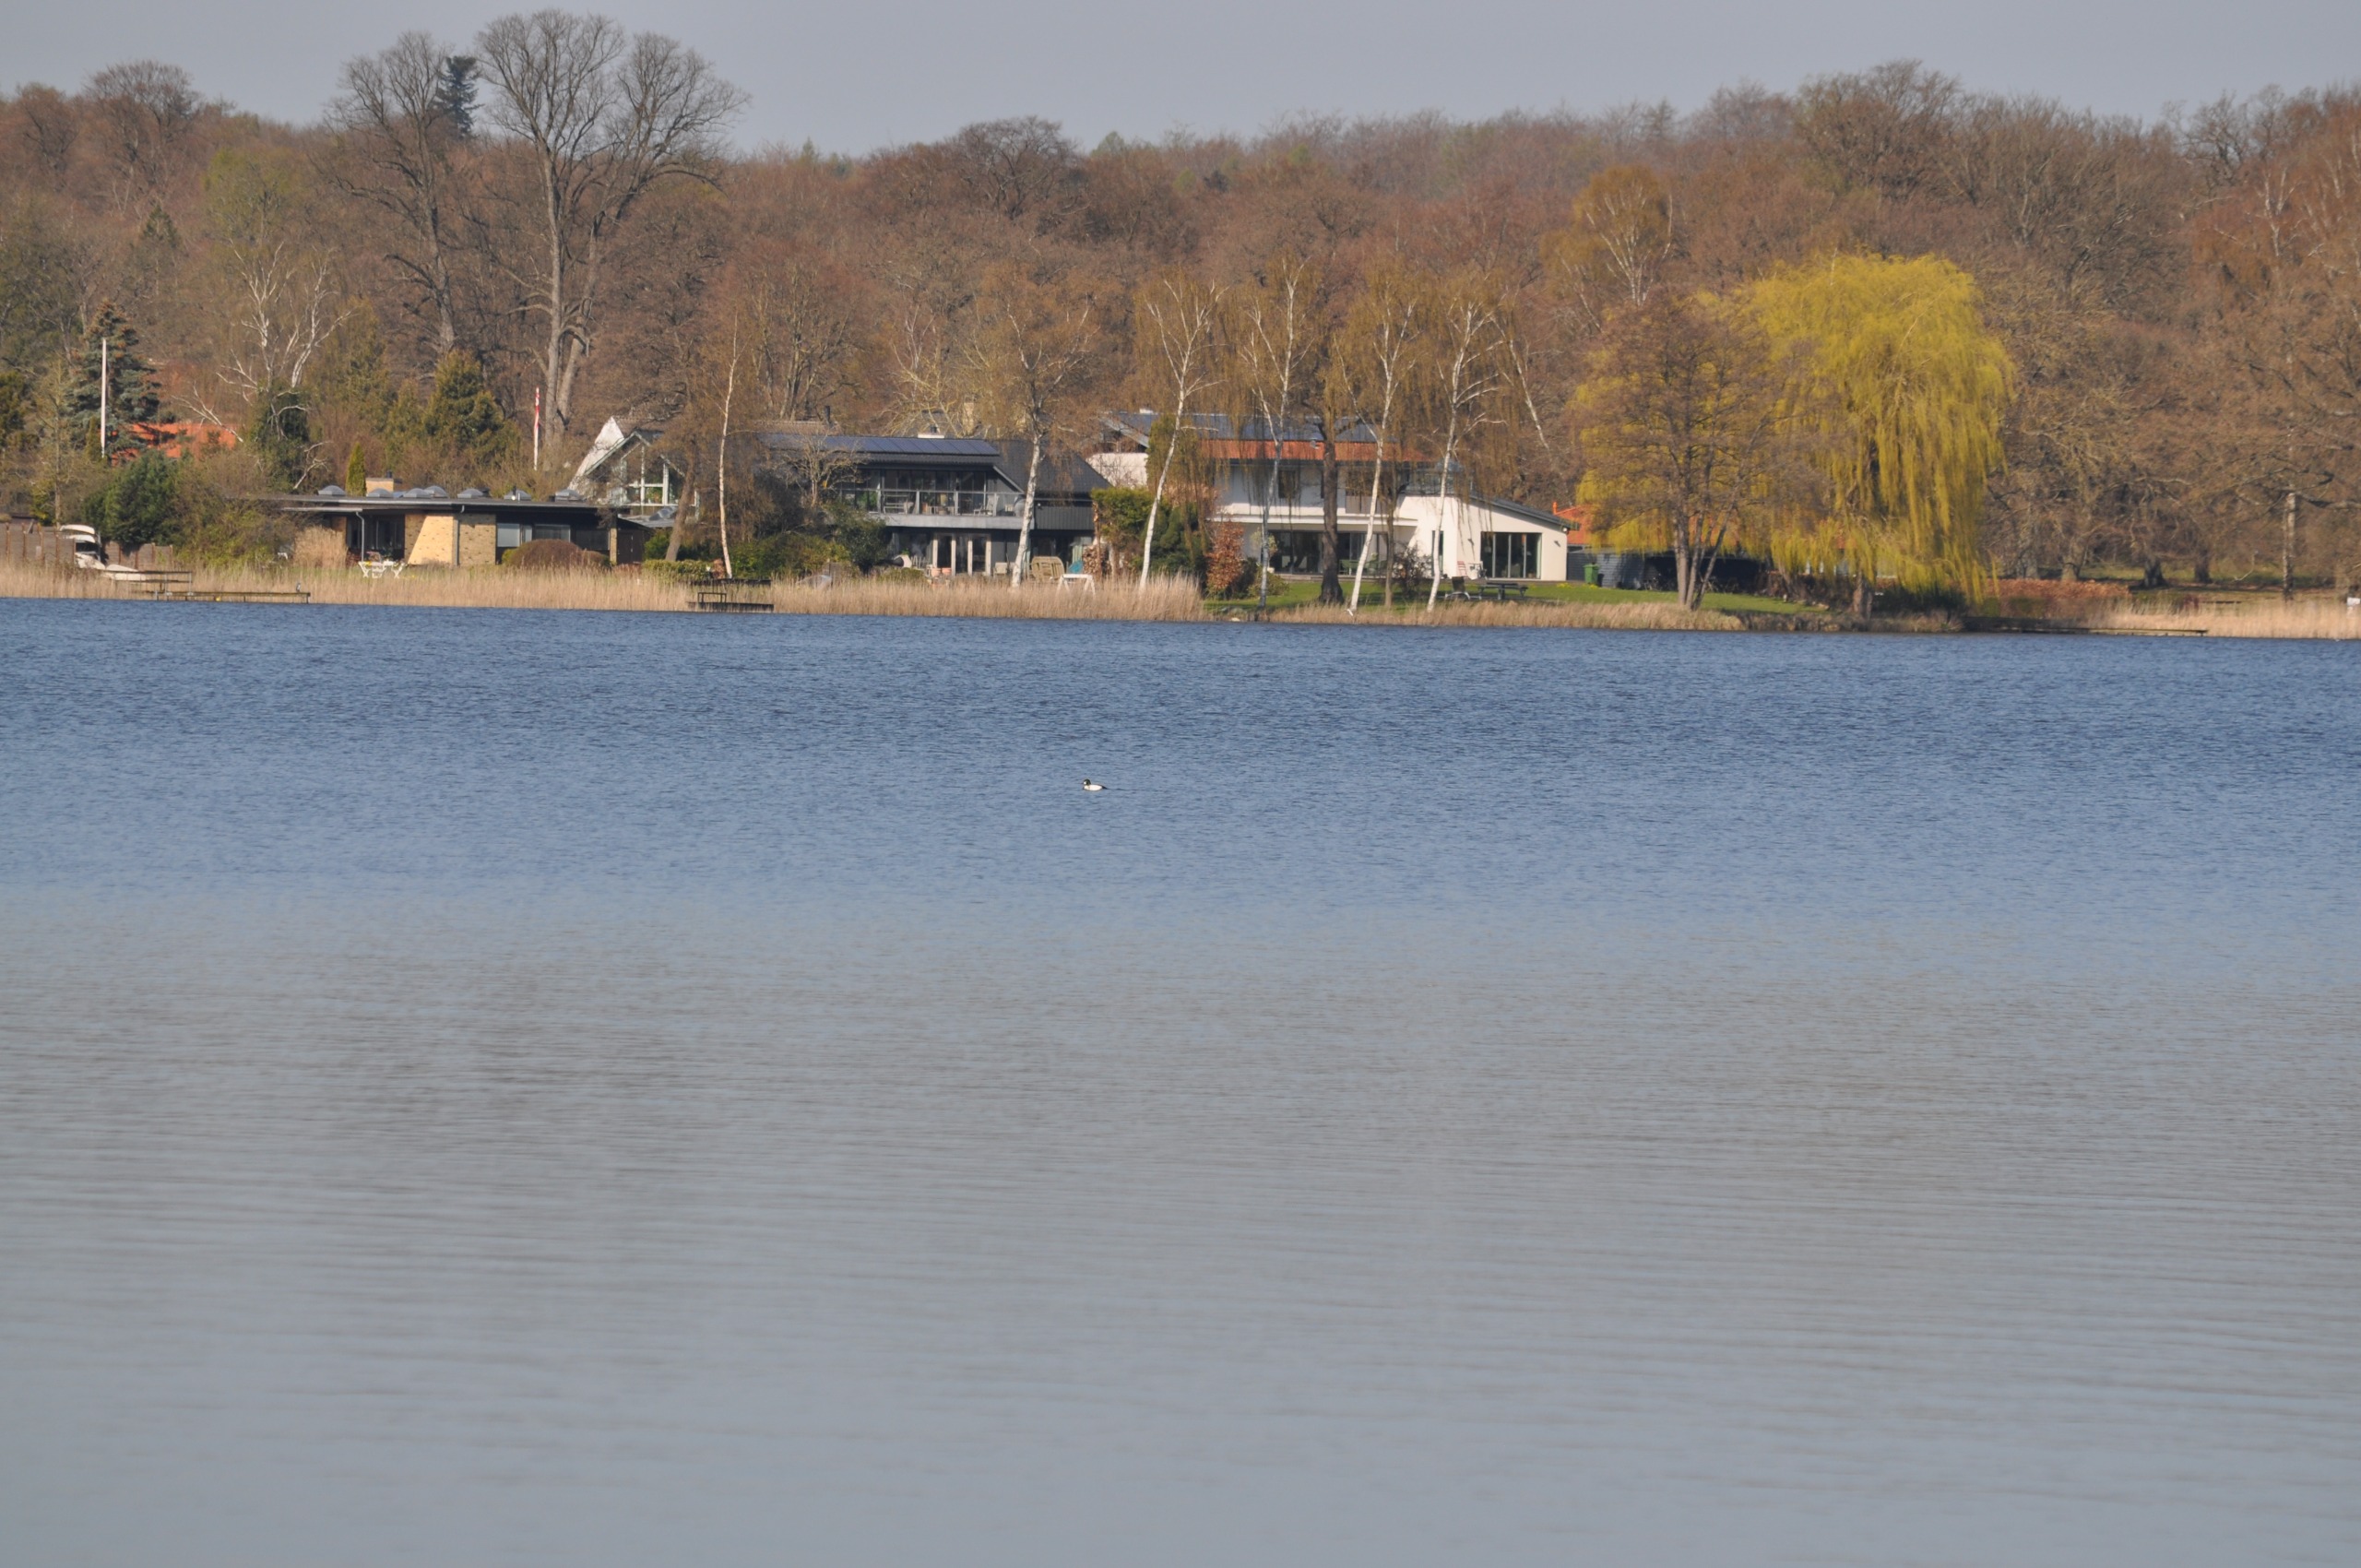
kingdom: Animalia
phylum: Chordata
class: Aves
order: Anseriformes
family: Anatidae
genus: Bucephala
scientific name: Bucephala clangula
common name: Hvinand
